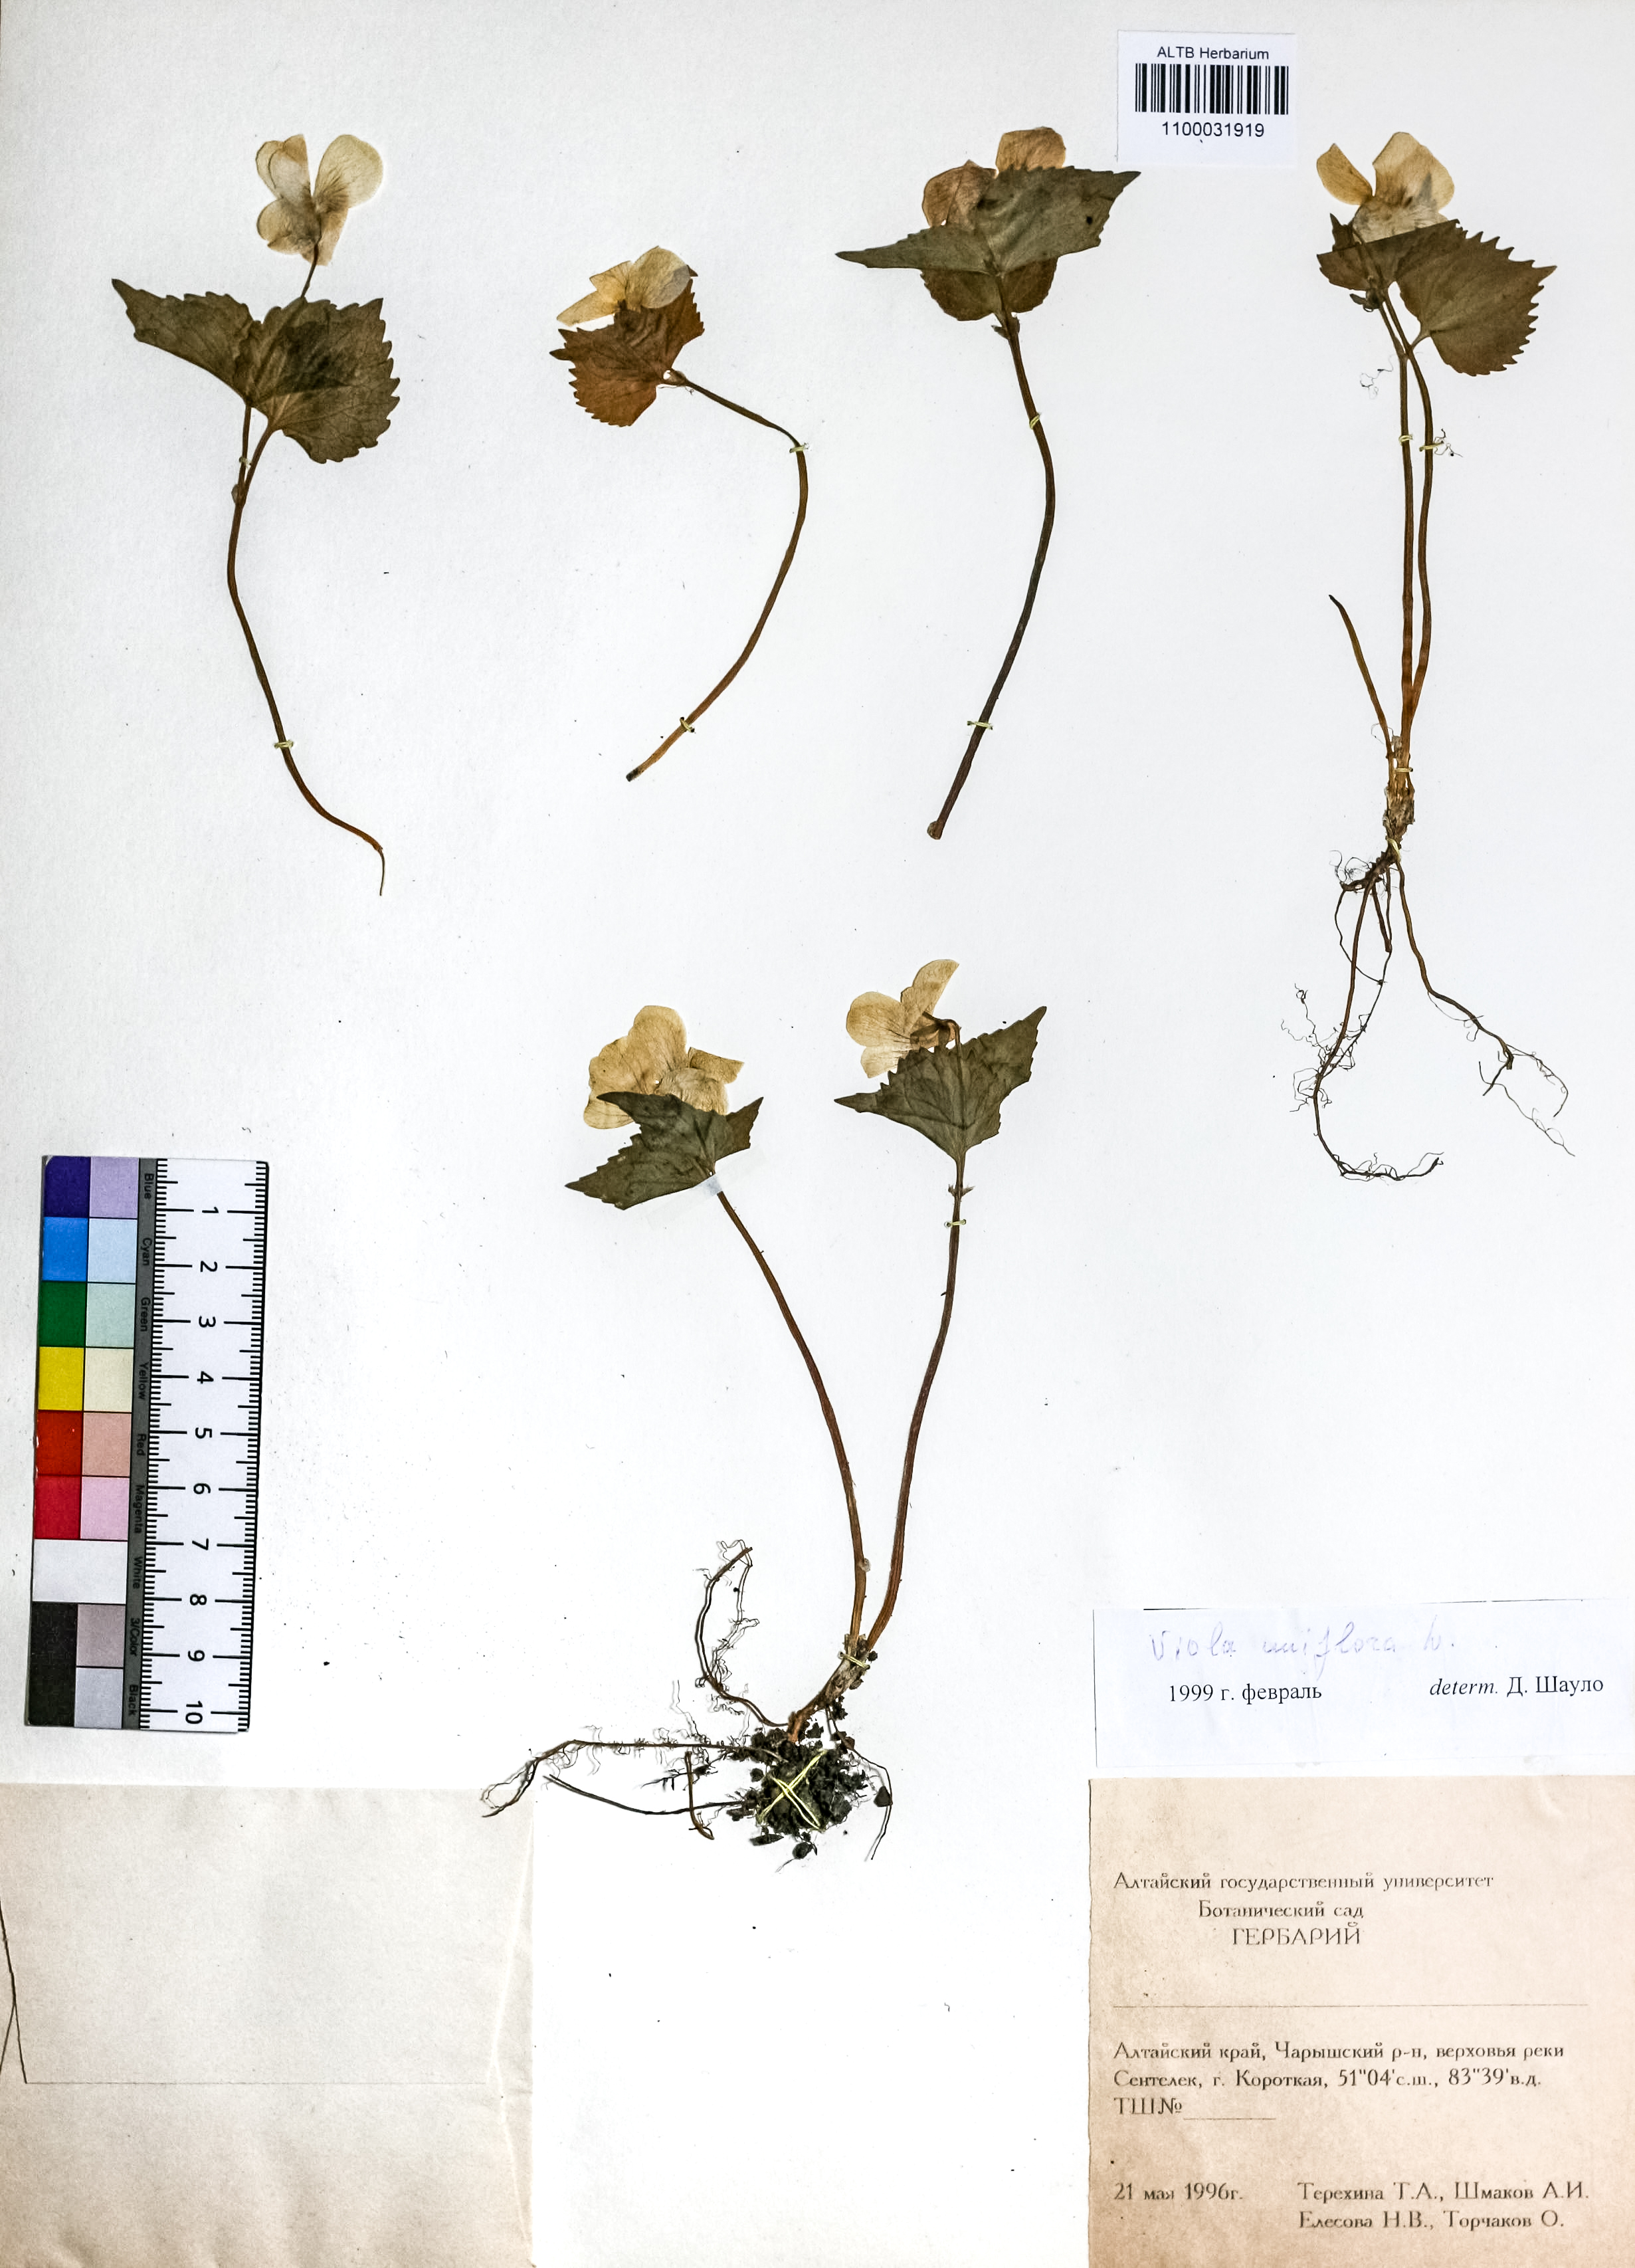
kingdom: Plantae
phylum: Tracheophyta
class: Magnoliopsida
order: Malpighiales
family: Violaceae
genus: Viola
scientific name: Viola uniflora
